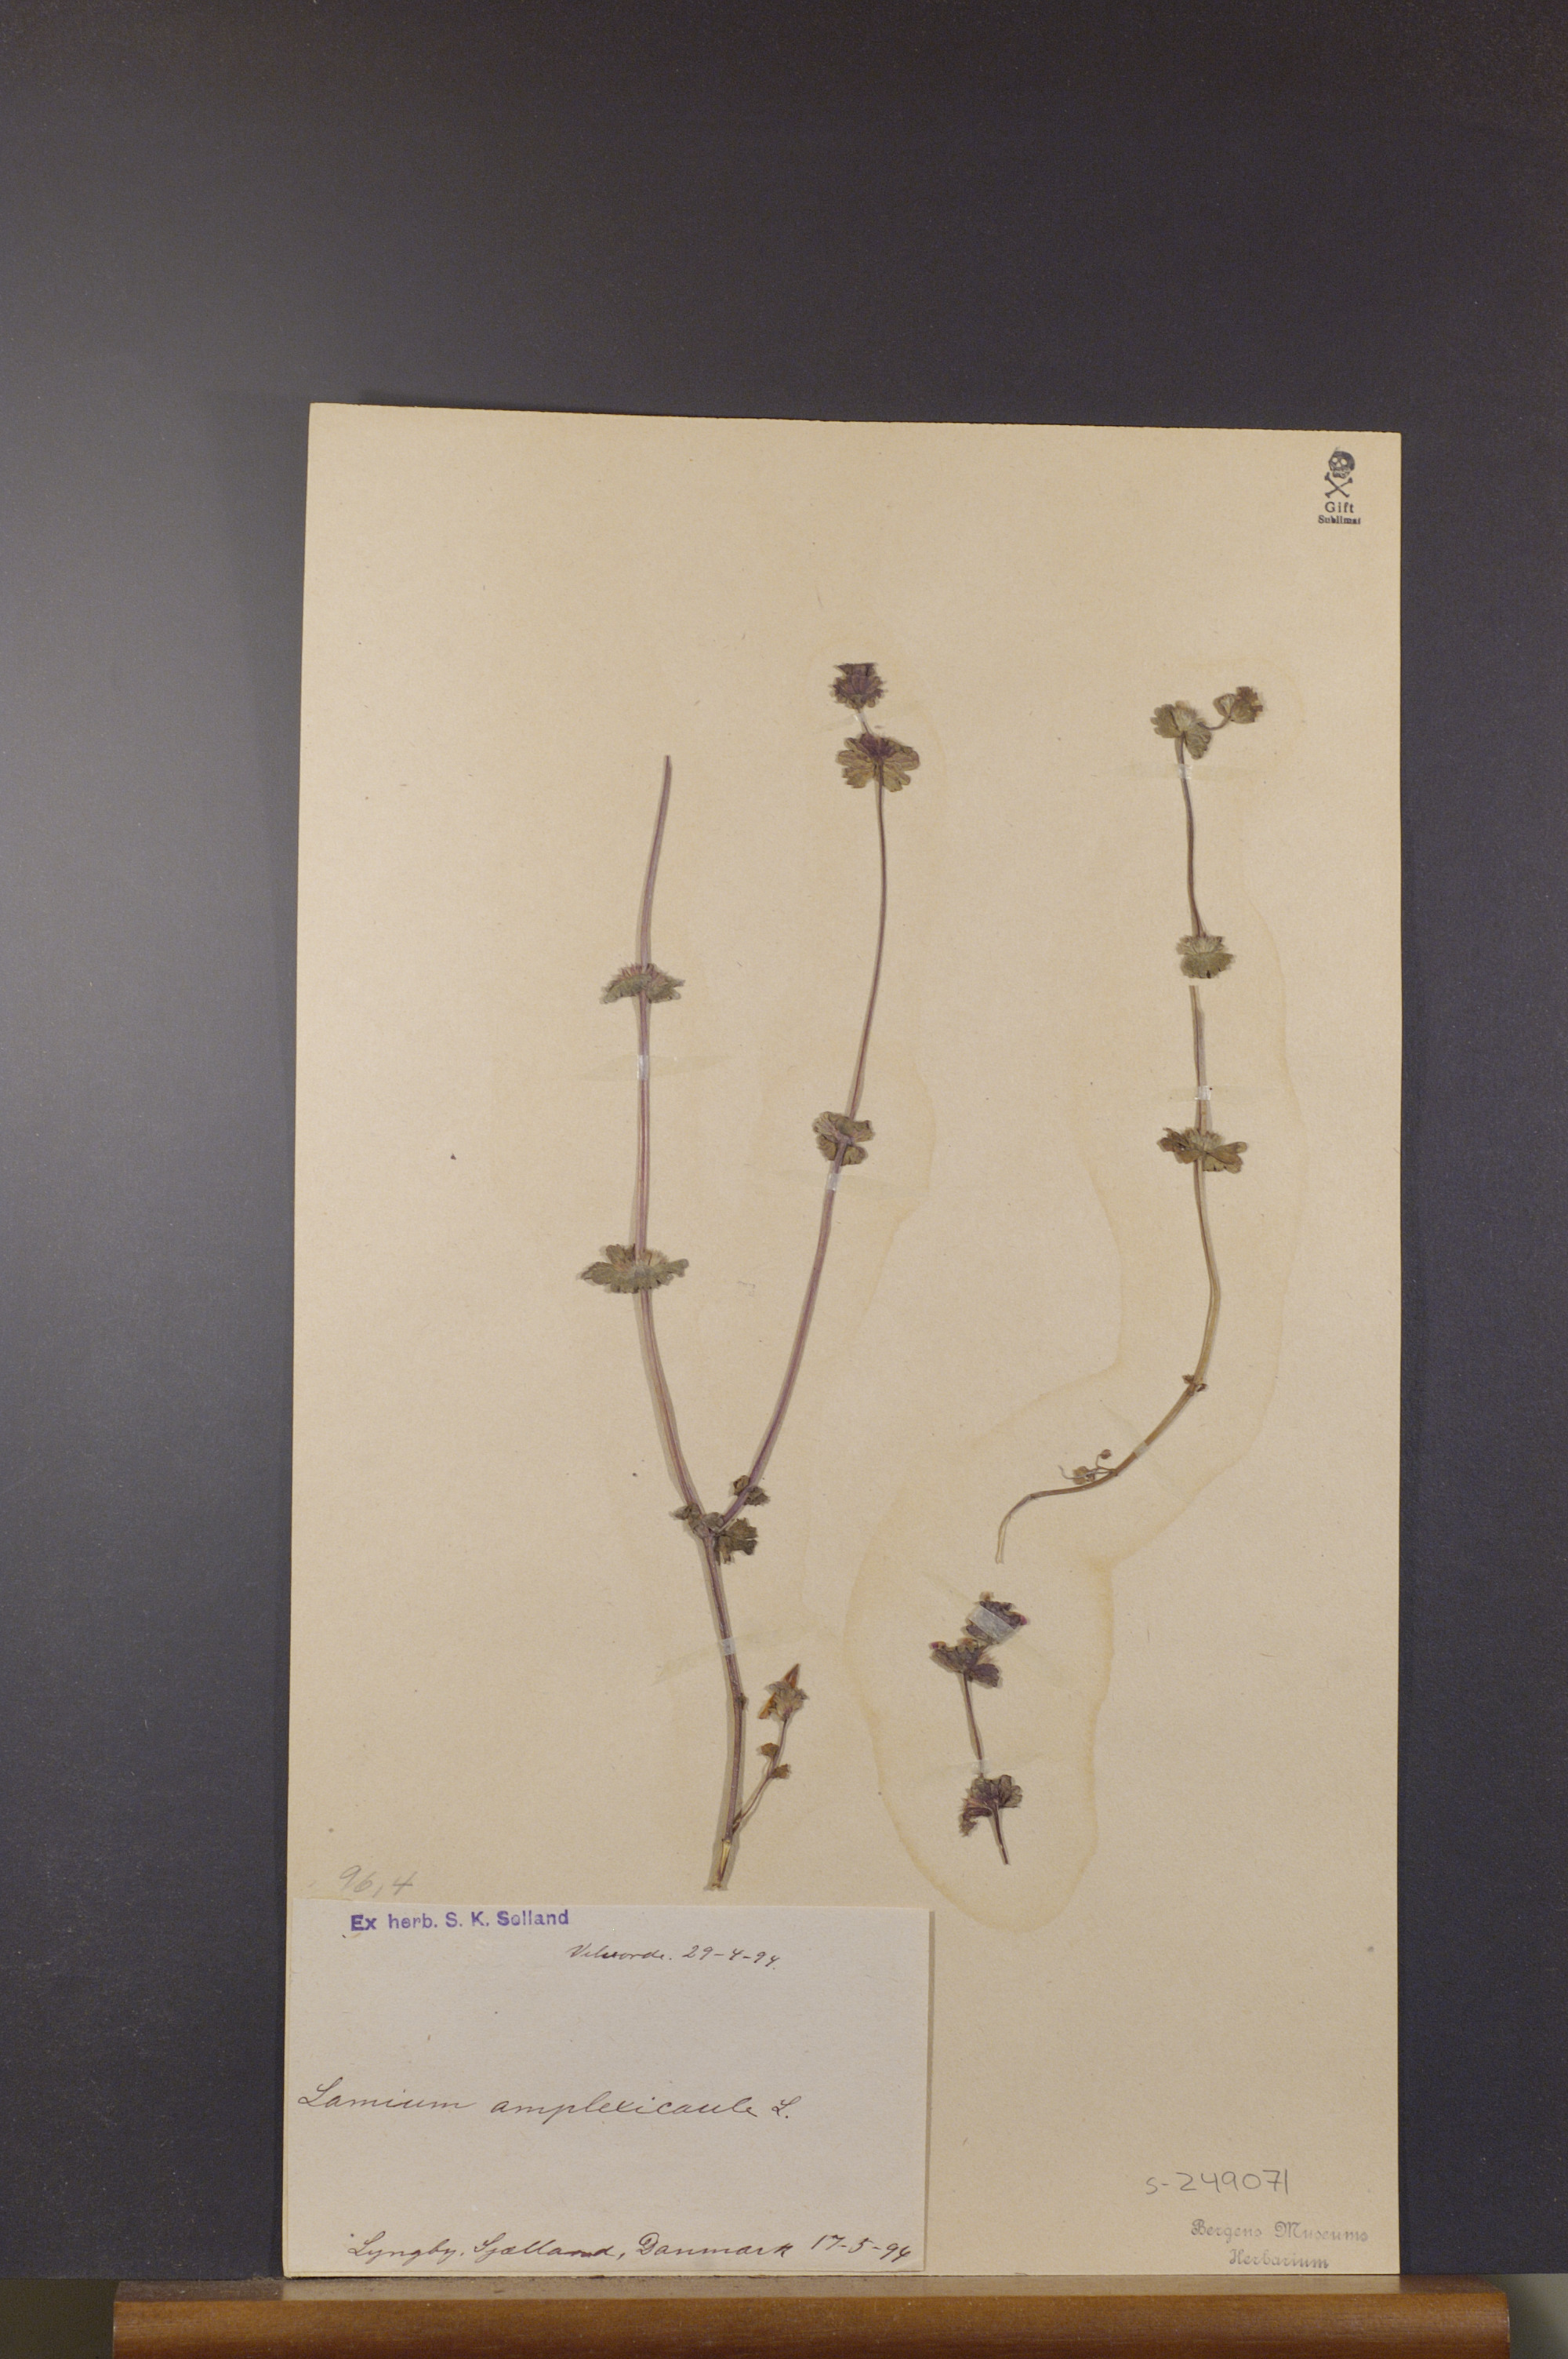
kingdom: Plantae
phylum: Tracheophyta
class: Magnoliopsida
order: Lamiales
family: Lamiaceae
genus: Lamium
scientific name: Lamium amplexicaule
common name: Henbit dead-nettle
